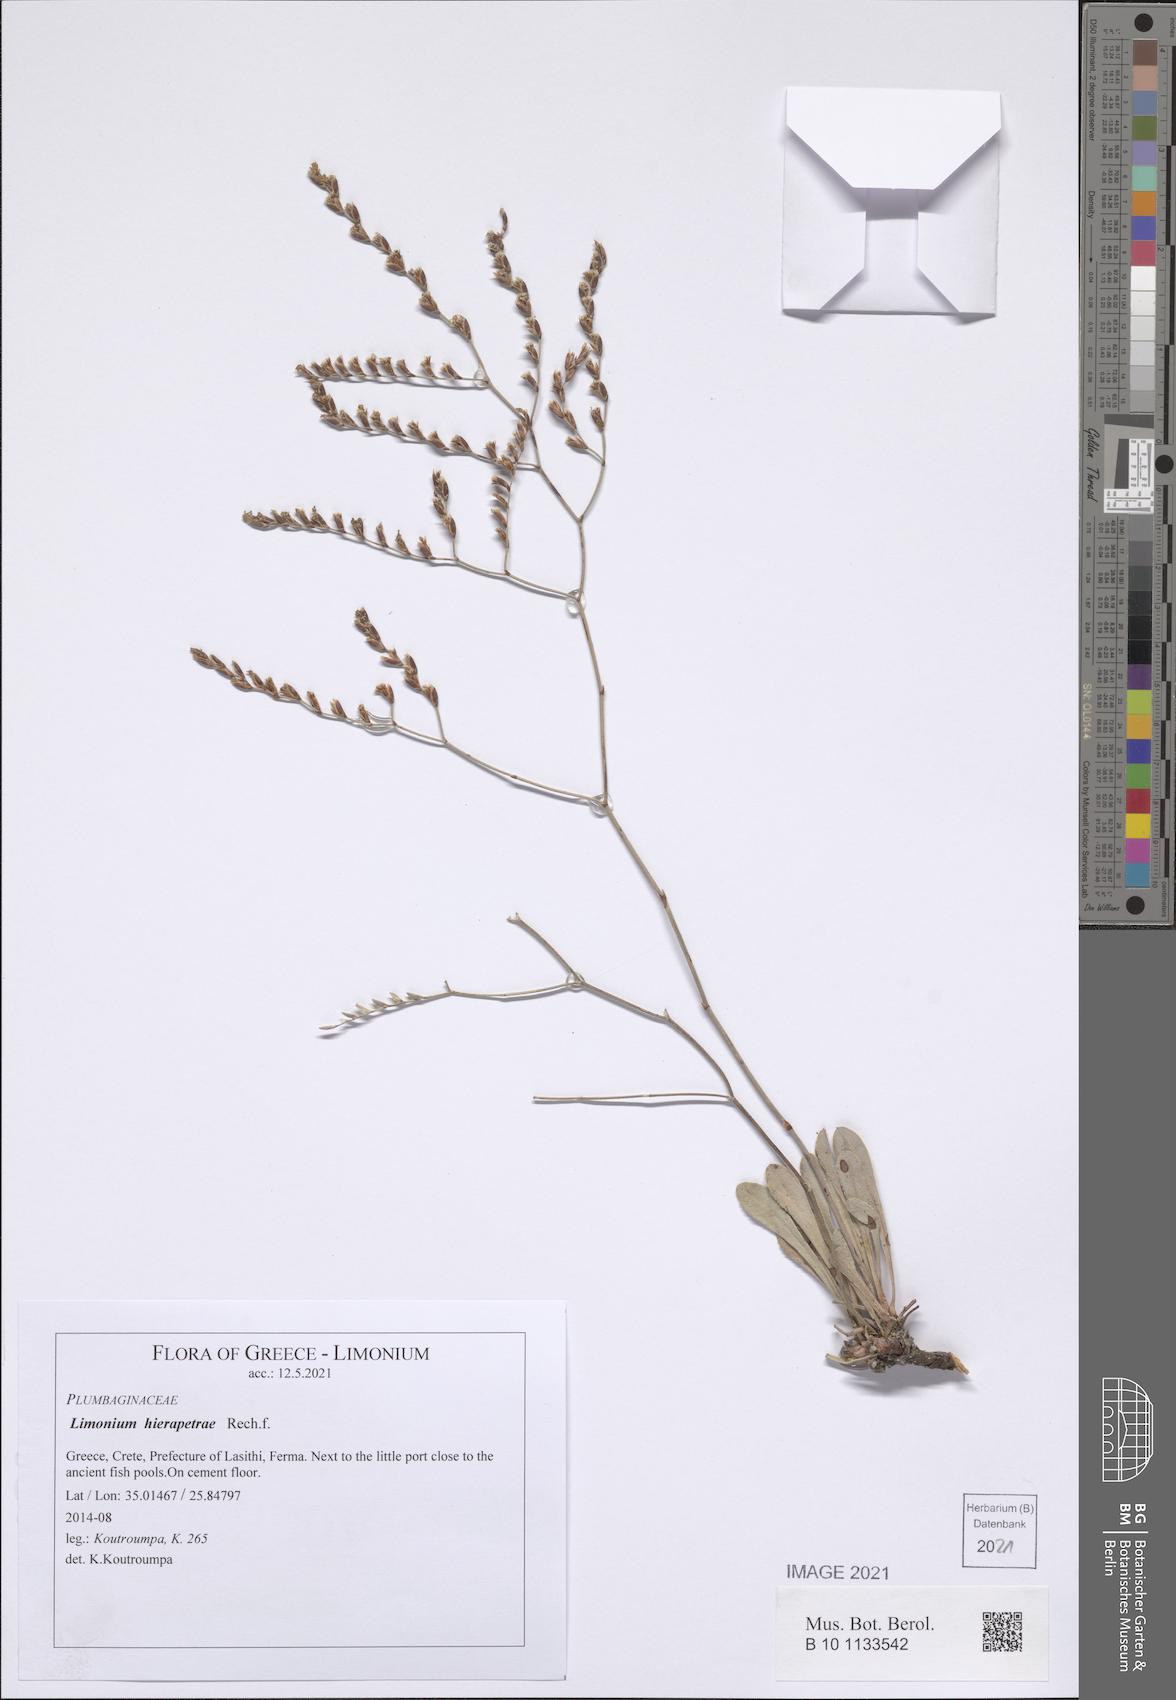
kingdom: Plantae
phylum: Tracheophyta
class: Magnoliopsida
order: Caryophyllales
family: Plumbaginaceae
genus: Limonium
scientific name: Limonium hierapetrae
